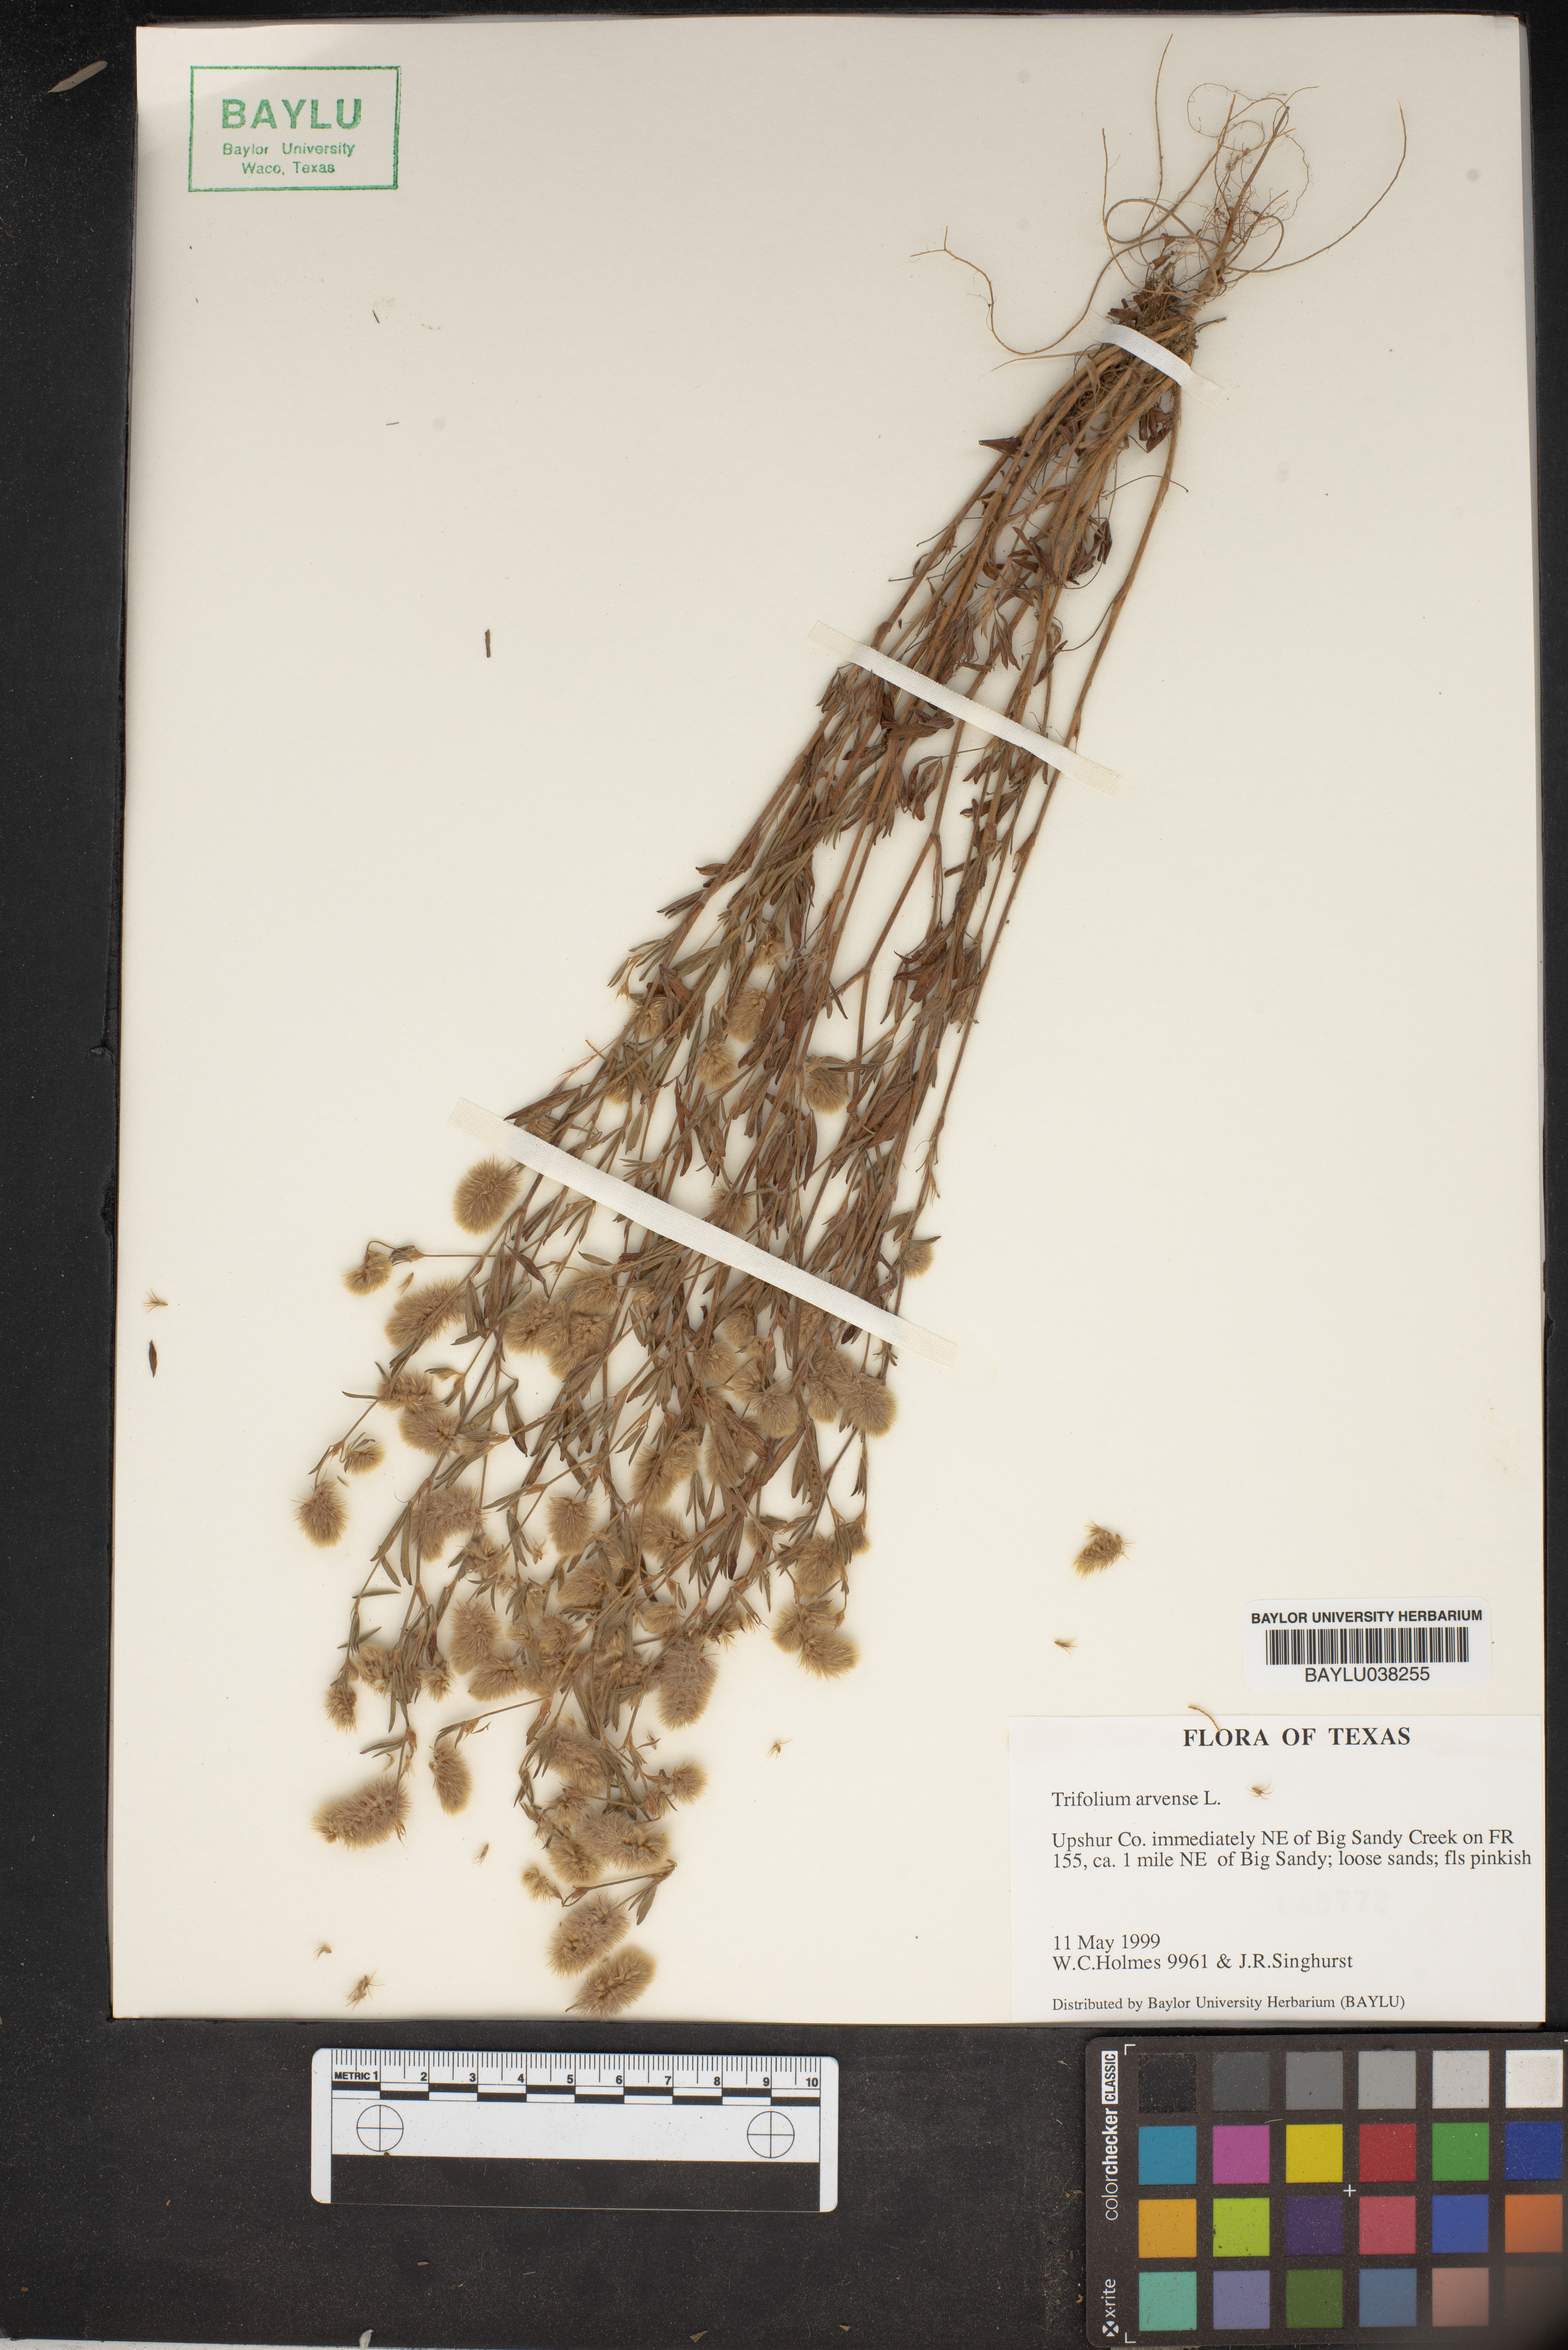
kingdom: Plantae
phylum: Tracheophyta
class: Magnoliopsida
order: Fabales
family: Fabaceae
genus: Trifolium
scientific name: Trifolium arvense
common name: Hare's-foot clover
